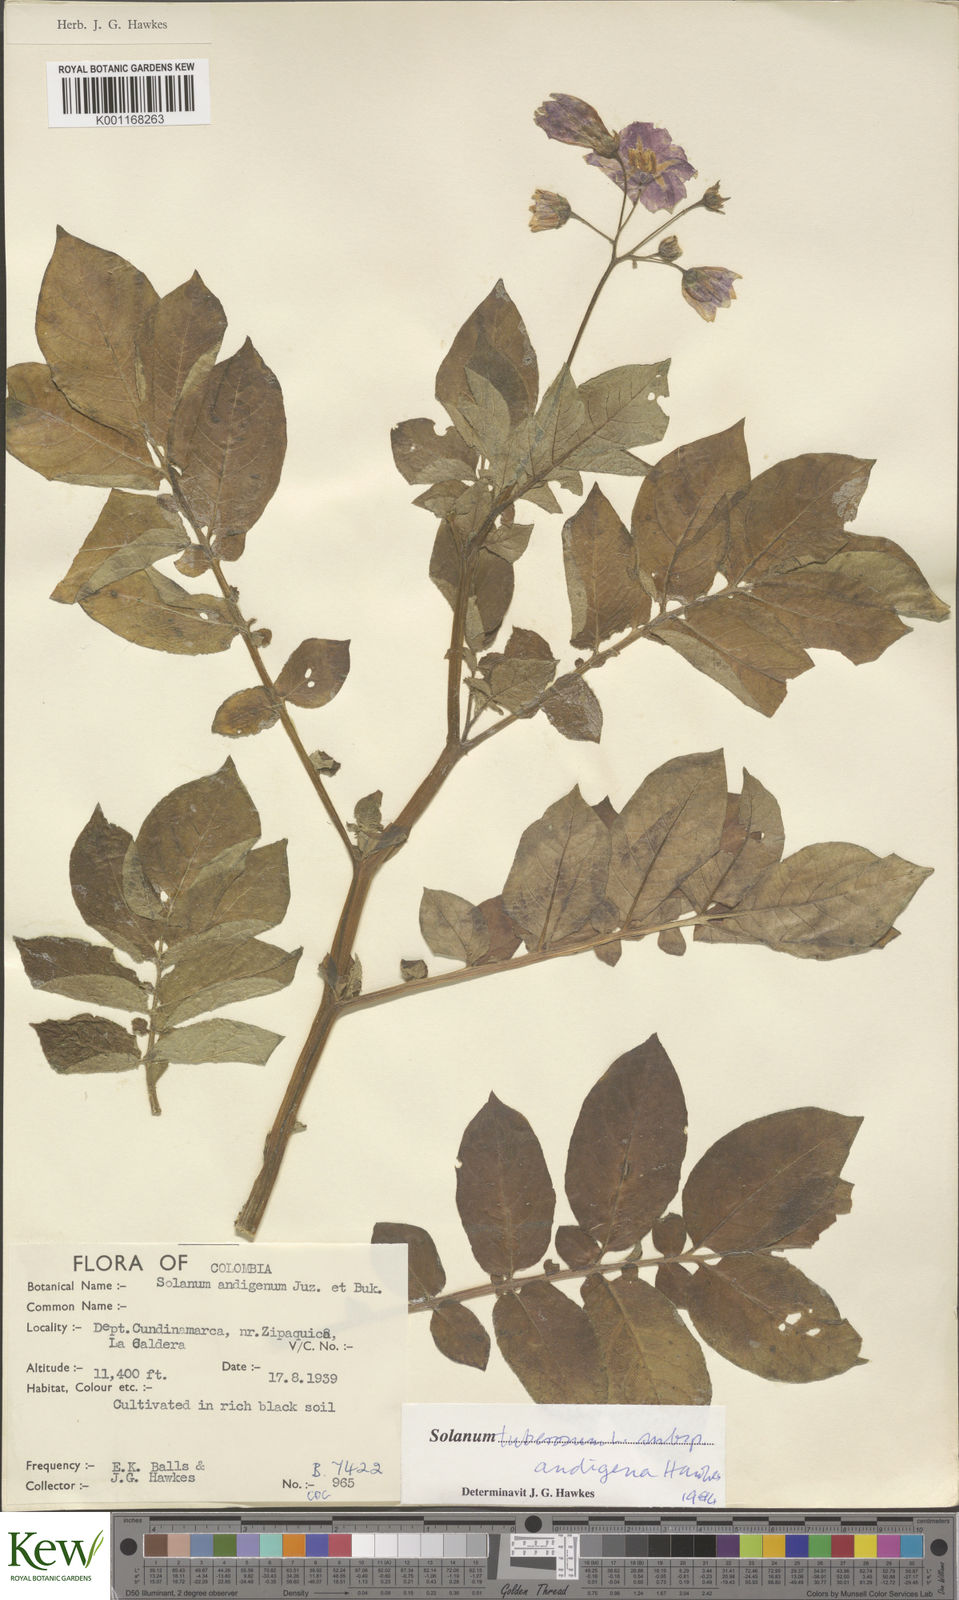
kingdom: Plantae
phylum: Tracheophyta
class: Magnoliopsida
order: Solanales
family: Solanaceae
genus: Solanum
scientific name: Solanum tuberosum
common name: Potato
